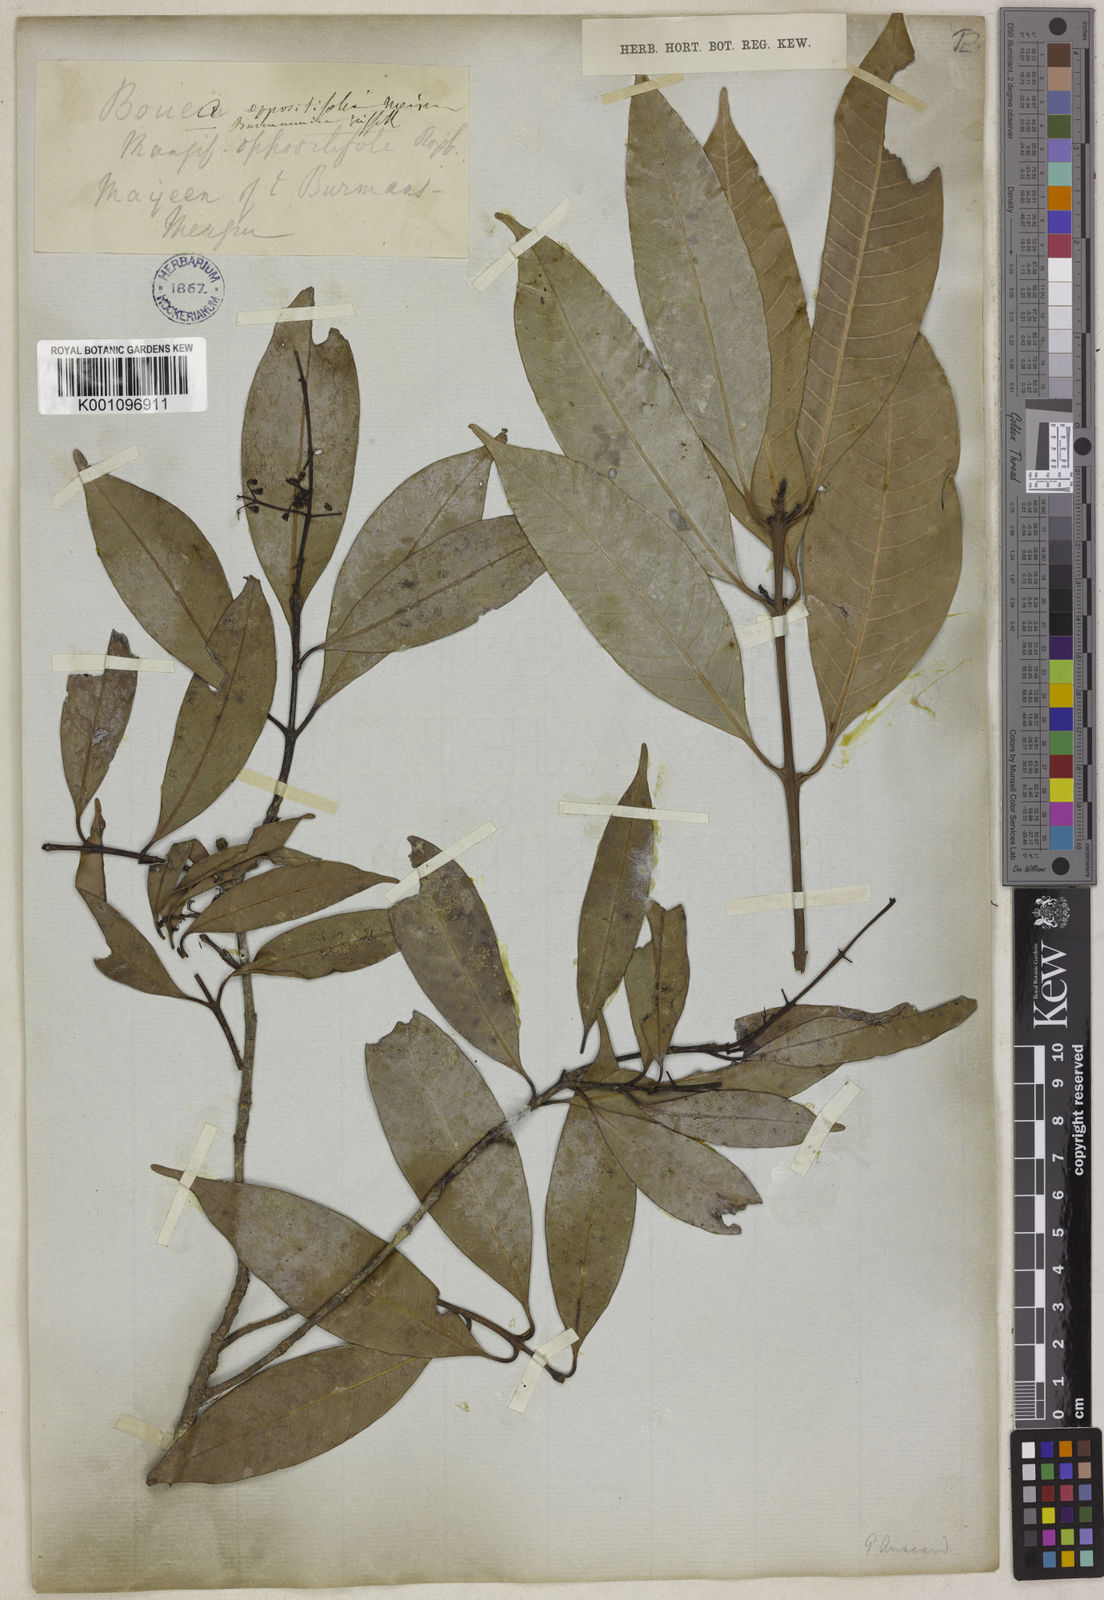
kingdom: Plantae
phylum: Tracheophyta
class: Magnoliopsida
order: Sapindales
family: Anacardiaceae
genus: Bouea
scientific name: Bouea oppositifolia
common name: Narrow-leaved kundang
